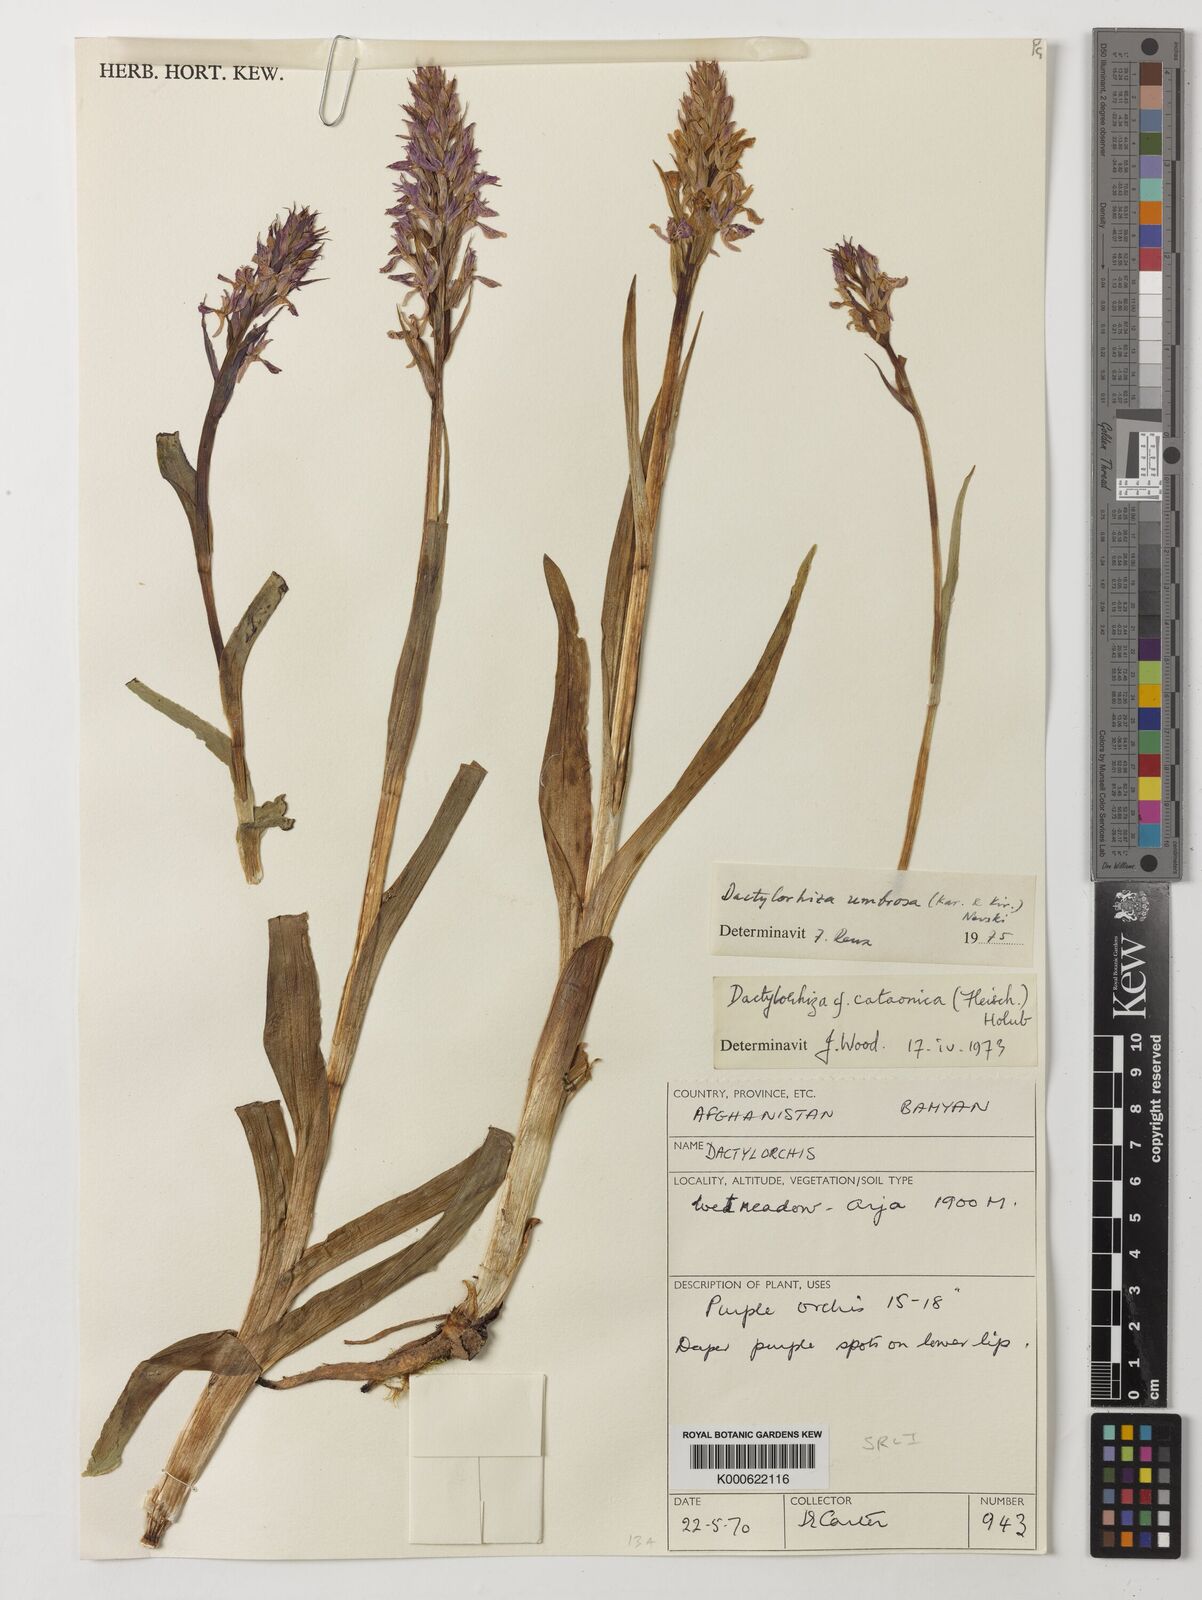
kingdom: Plantae
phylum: Tracheophyta
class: Liliopsida
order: Asparagales
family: Orchidaceae
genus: Dactylorhiza
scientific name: Dactylorhiza
